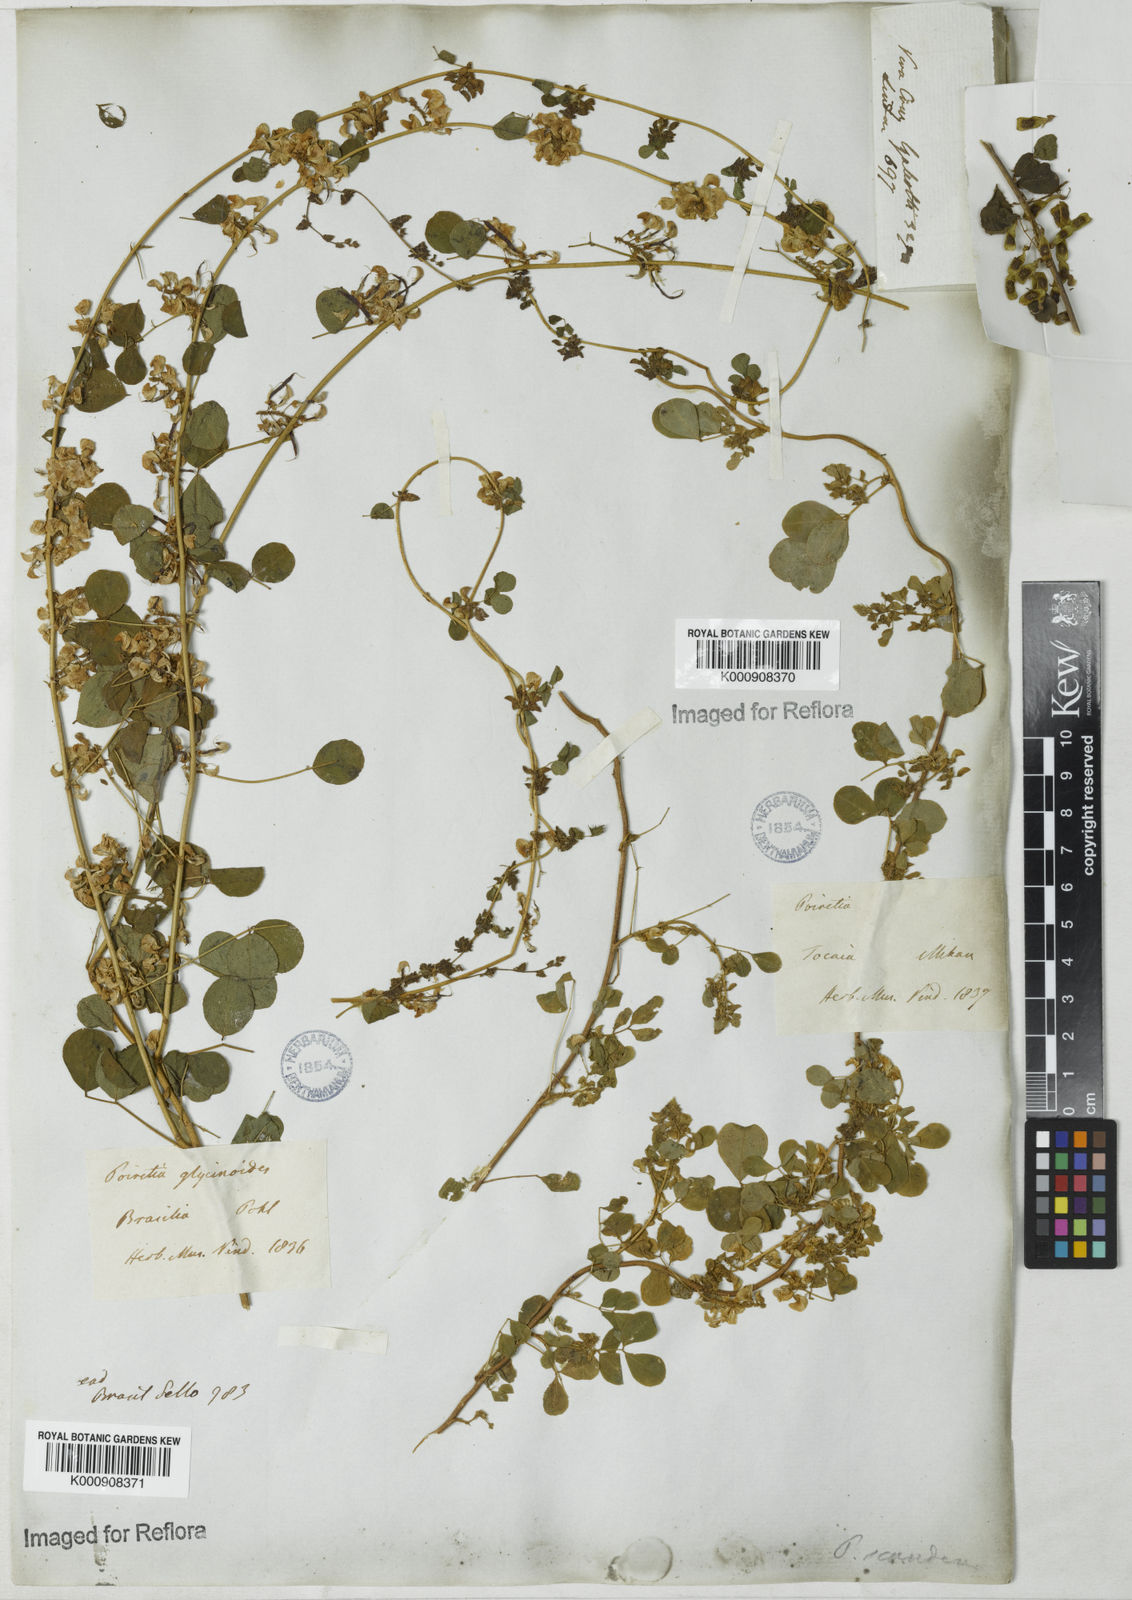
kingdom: Plantae
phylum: Tracheophyta
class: Magnoliopsida
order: Fabales
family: Fabaceae
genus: Poiretia
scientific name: Poiretia punctata
